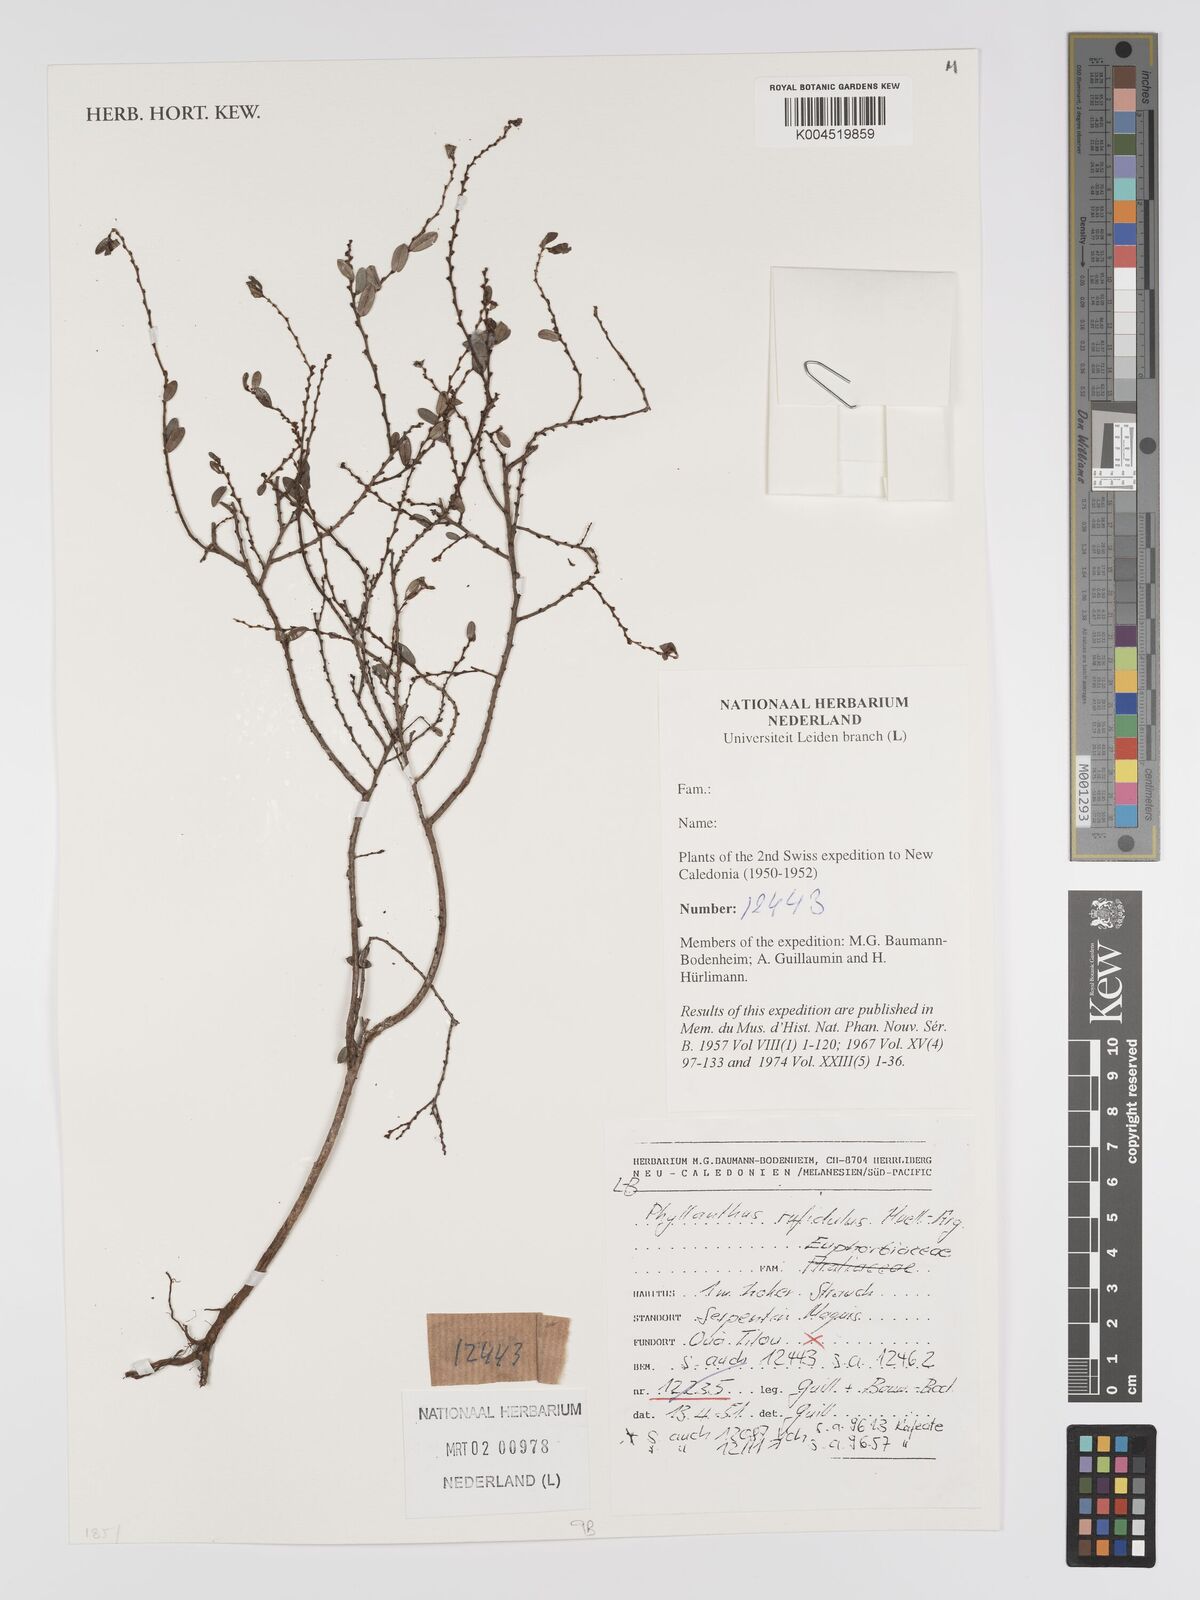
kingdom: Plantae
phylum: Tracheophyta
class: Magnoliopsida
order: Malpighiales
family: Phyllanthaceae
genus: Phyllanthus
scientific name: Phyllanthus chrysanthus
